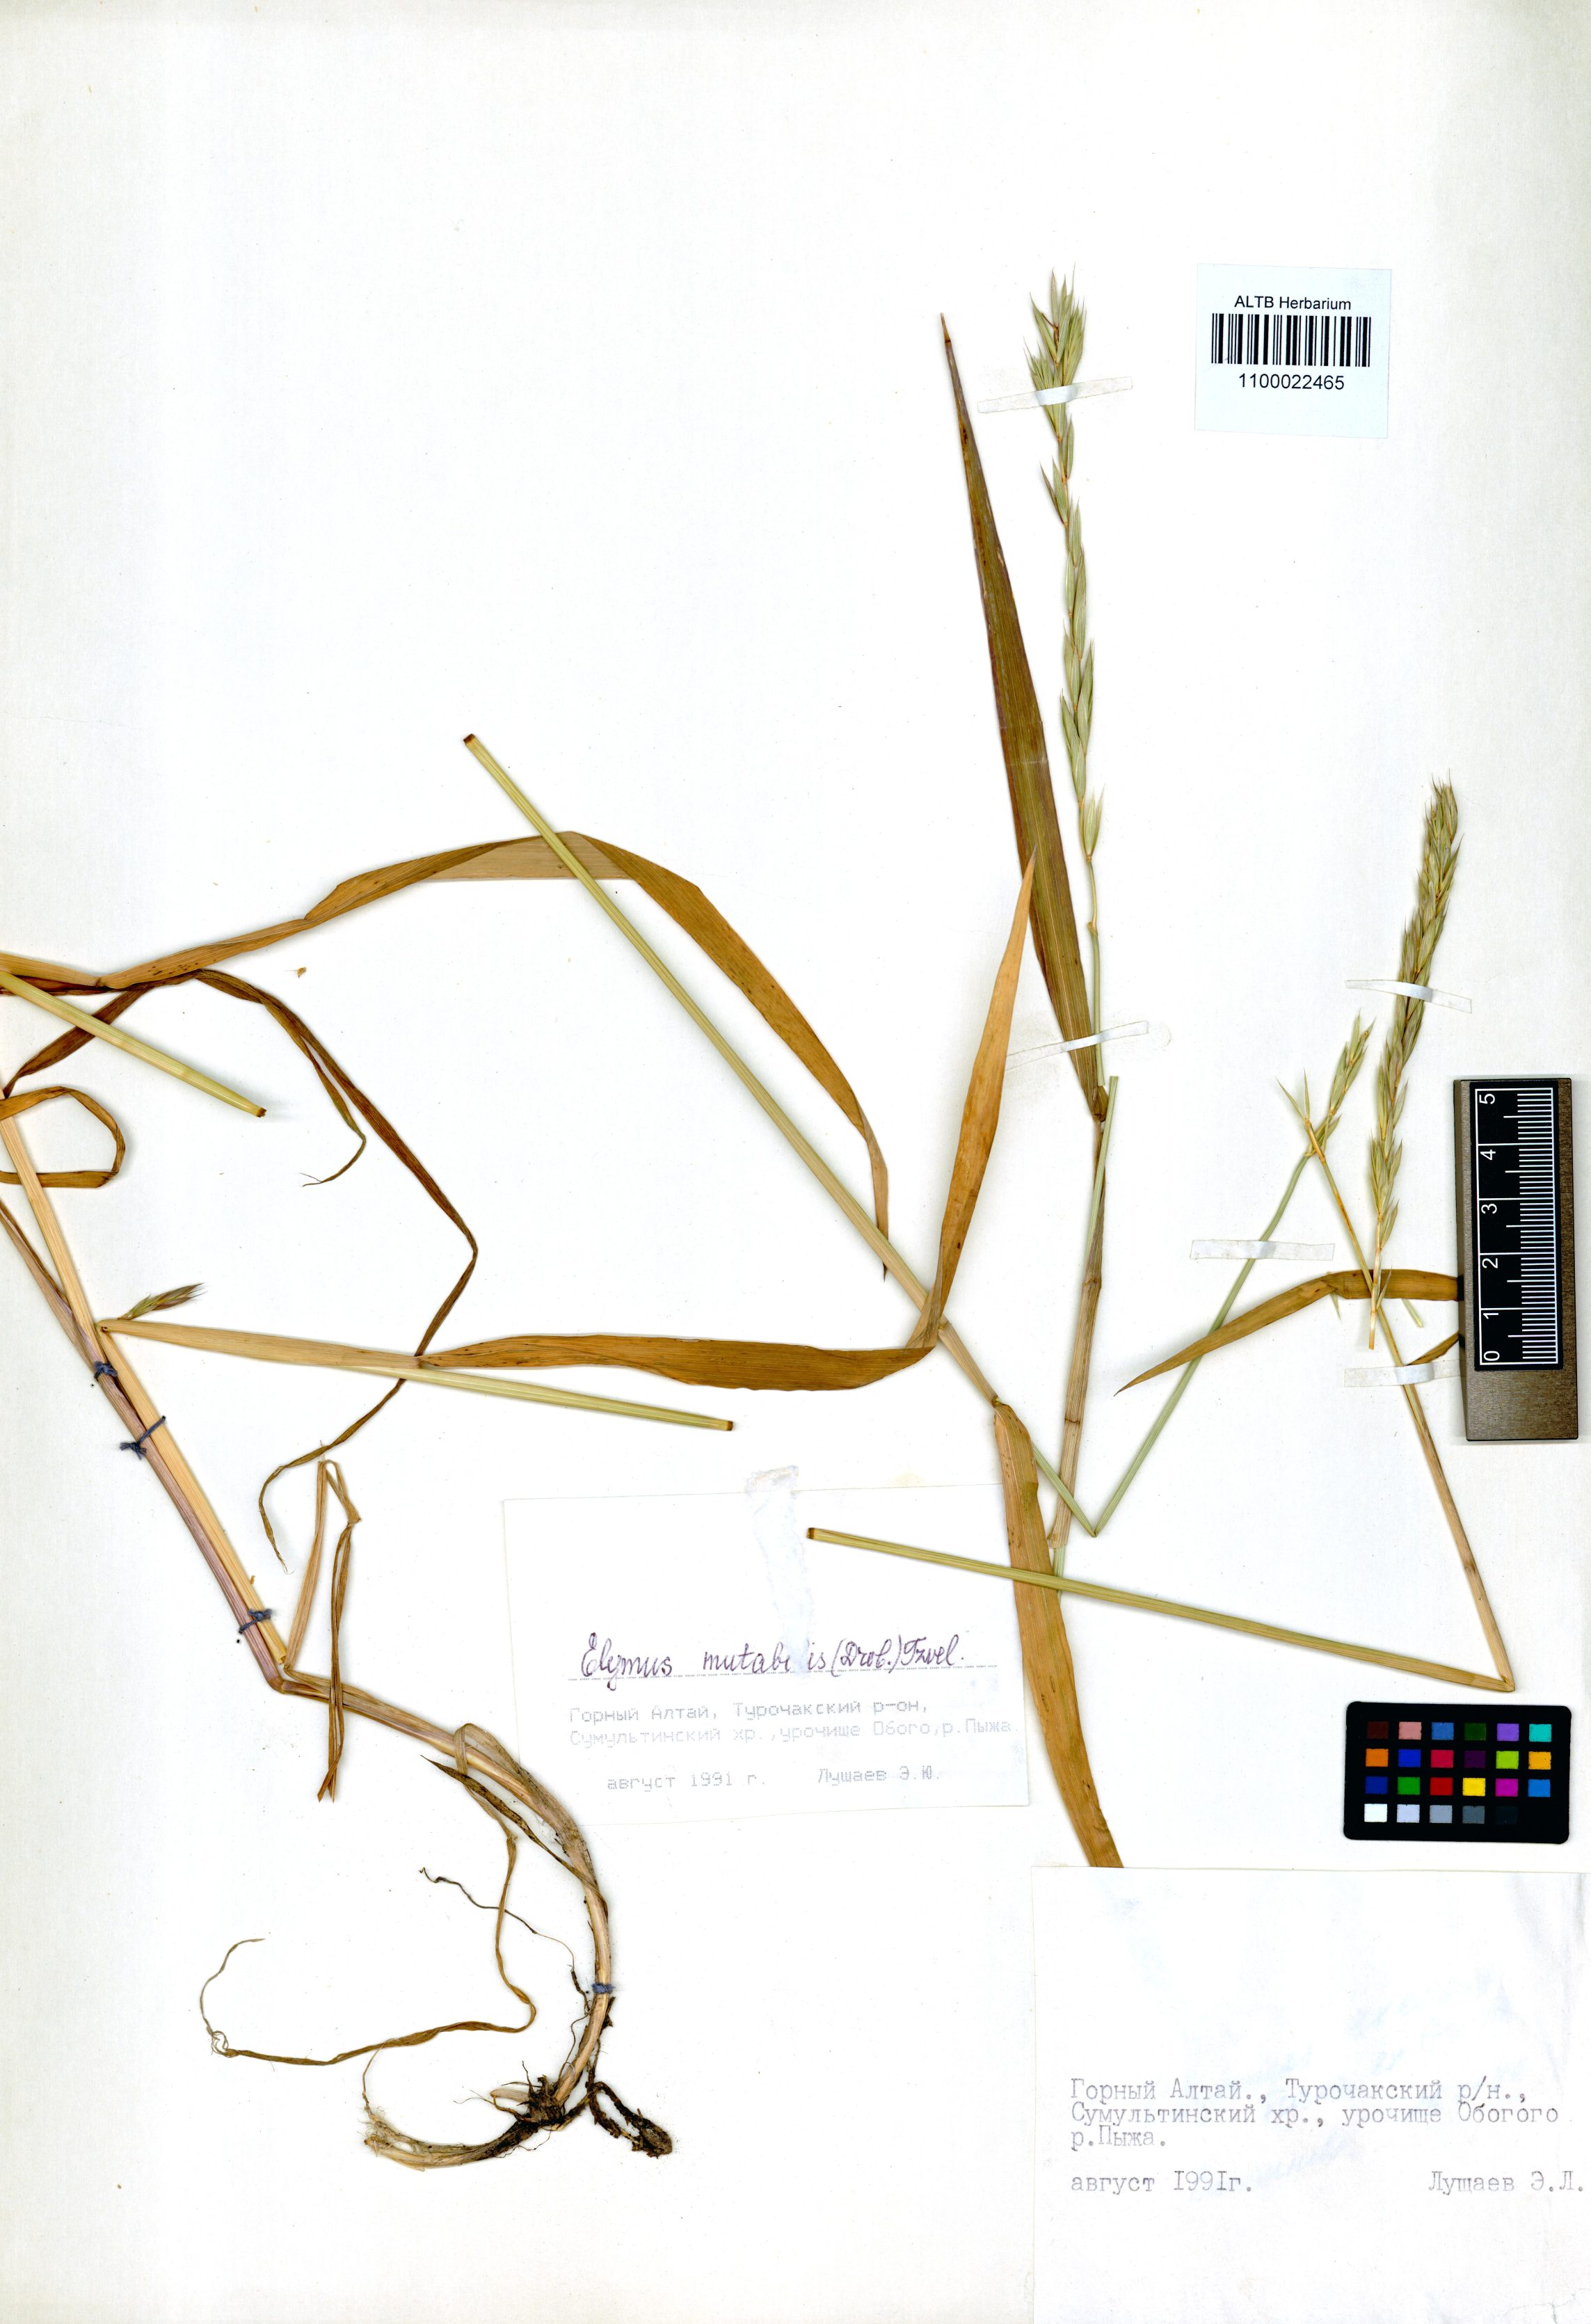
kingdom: Plantae
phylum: Tracheophyta
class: Liliopsida
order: Poales
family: Poaceae
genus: Elymus
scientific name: Elymus mutabilis
